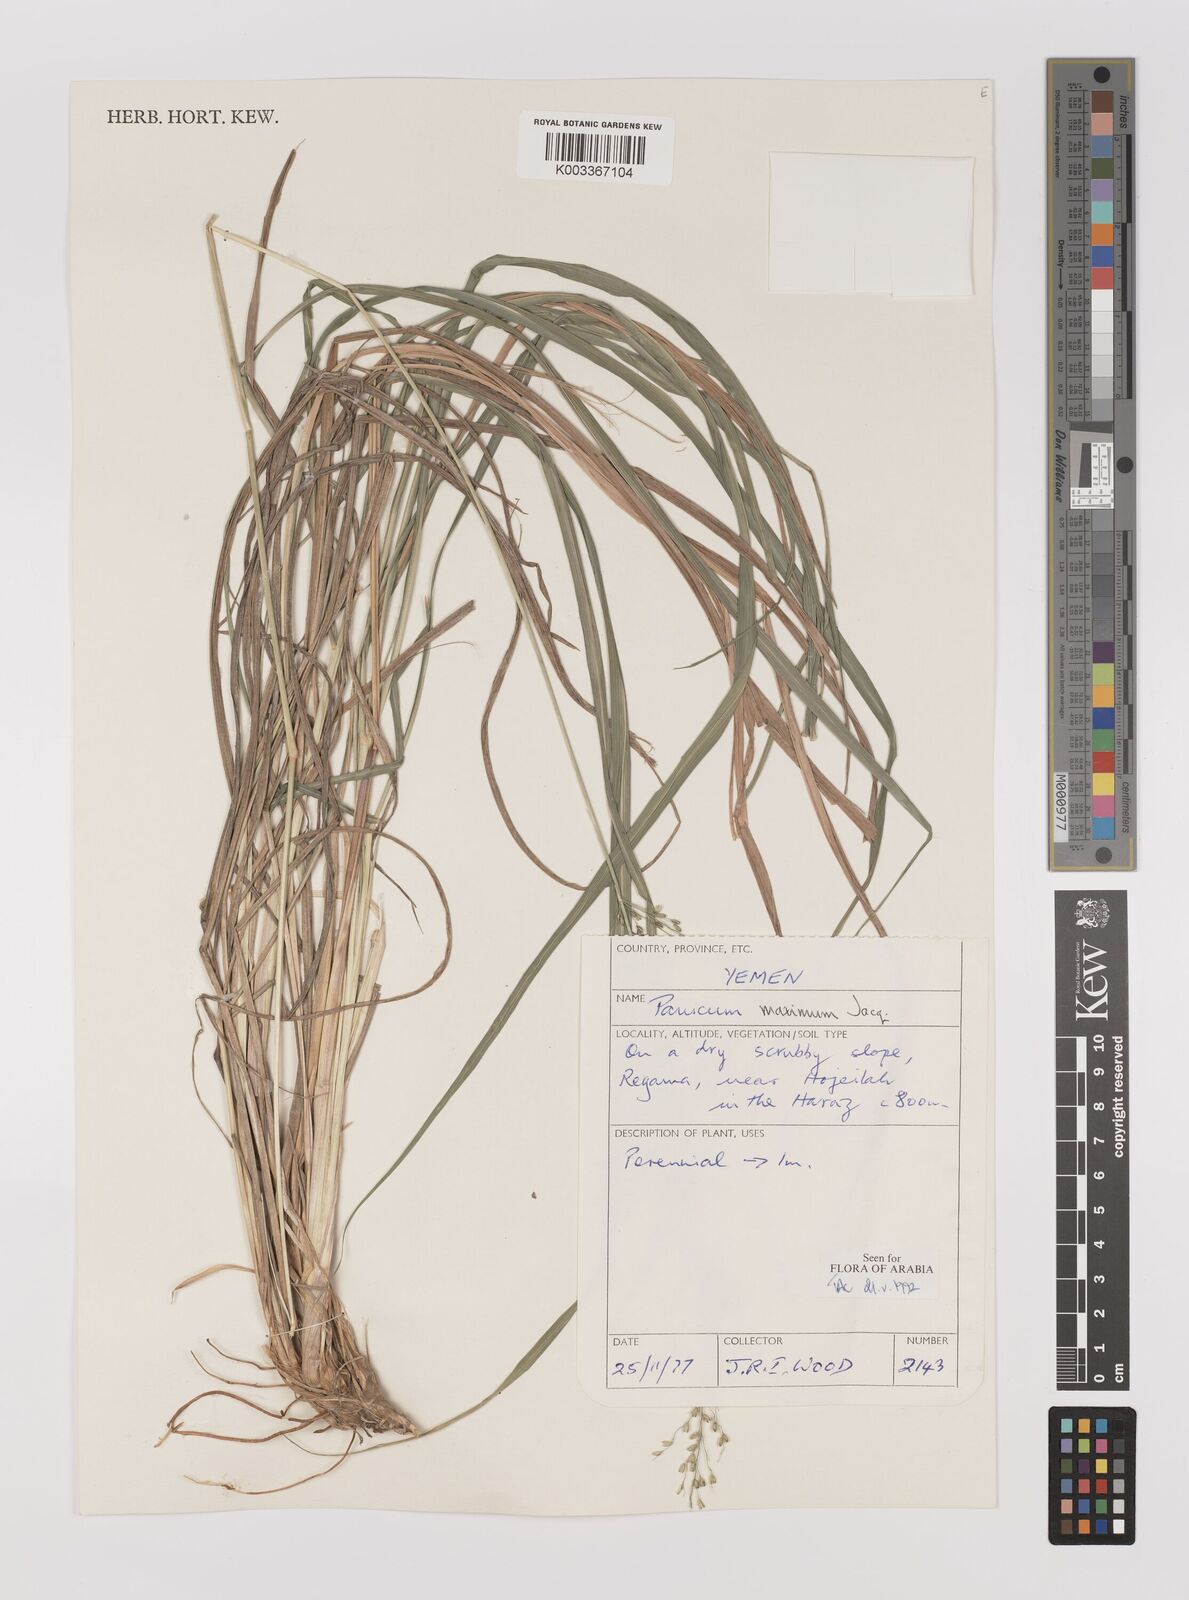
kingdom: Plantae
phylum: Tracheophyta
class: Liliopsida
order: Poales
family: Poaceae
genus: Megathyrsus
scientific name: Megathyrsus maximus
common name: Guineagrass
